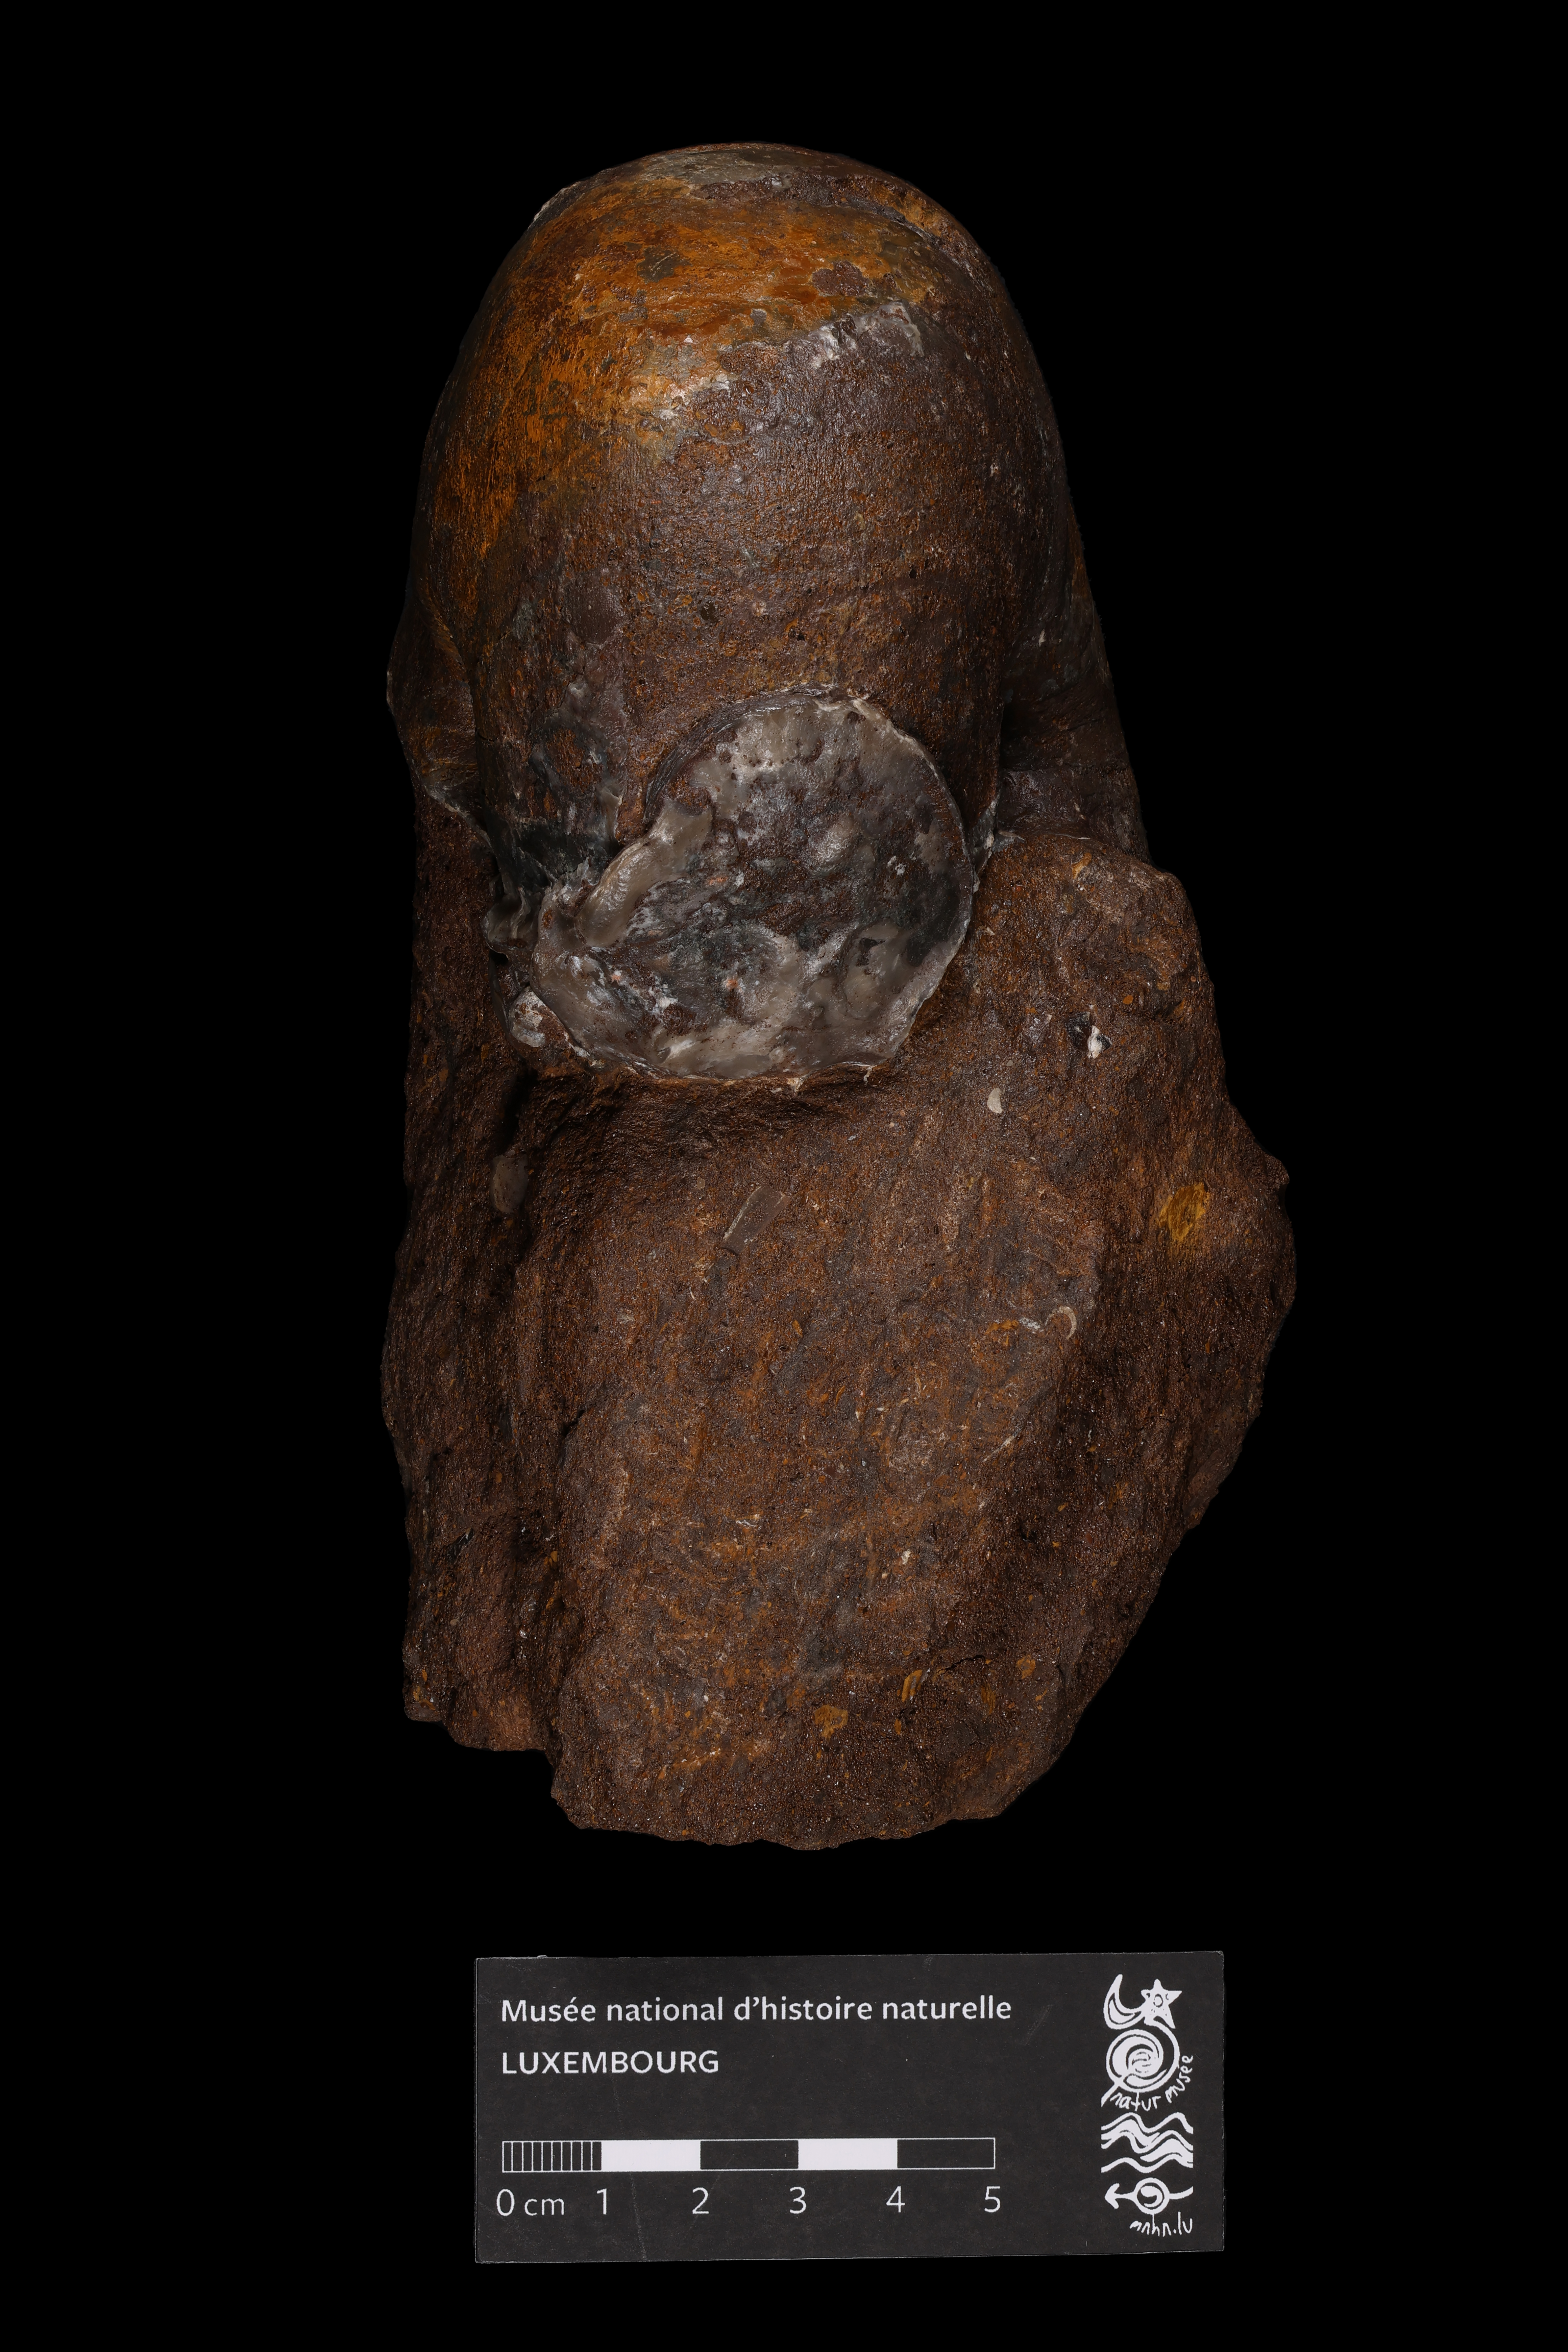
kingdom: Animalia
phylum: Mollusca
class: Cephalopoda
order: Nautilida
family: Nautilidae
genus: Nautilus
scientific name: Nautilus
